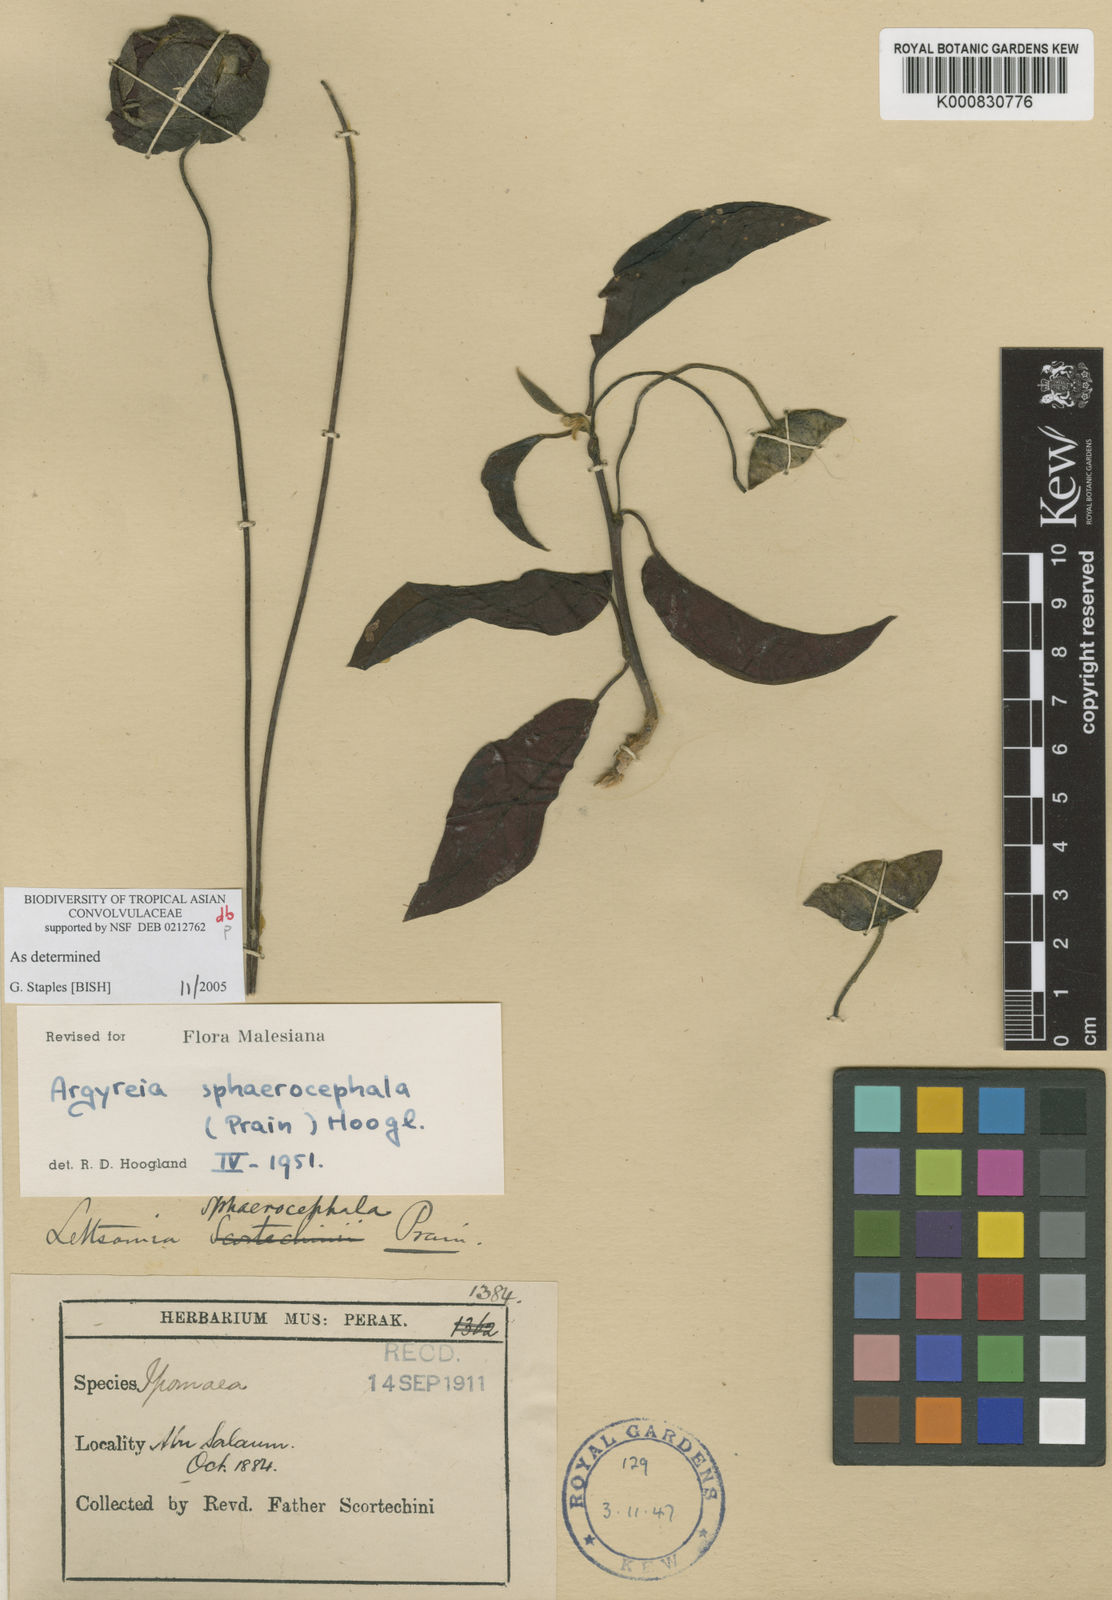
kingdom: Plantae
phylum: Tracheophyta
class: Magnoliopsida
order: Solanales
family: Convolvulaceae
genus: Argyreia
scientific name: Argyreia sphaerocephala
